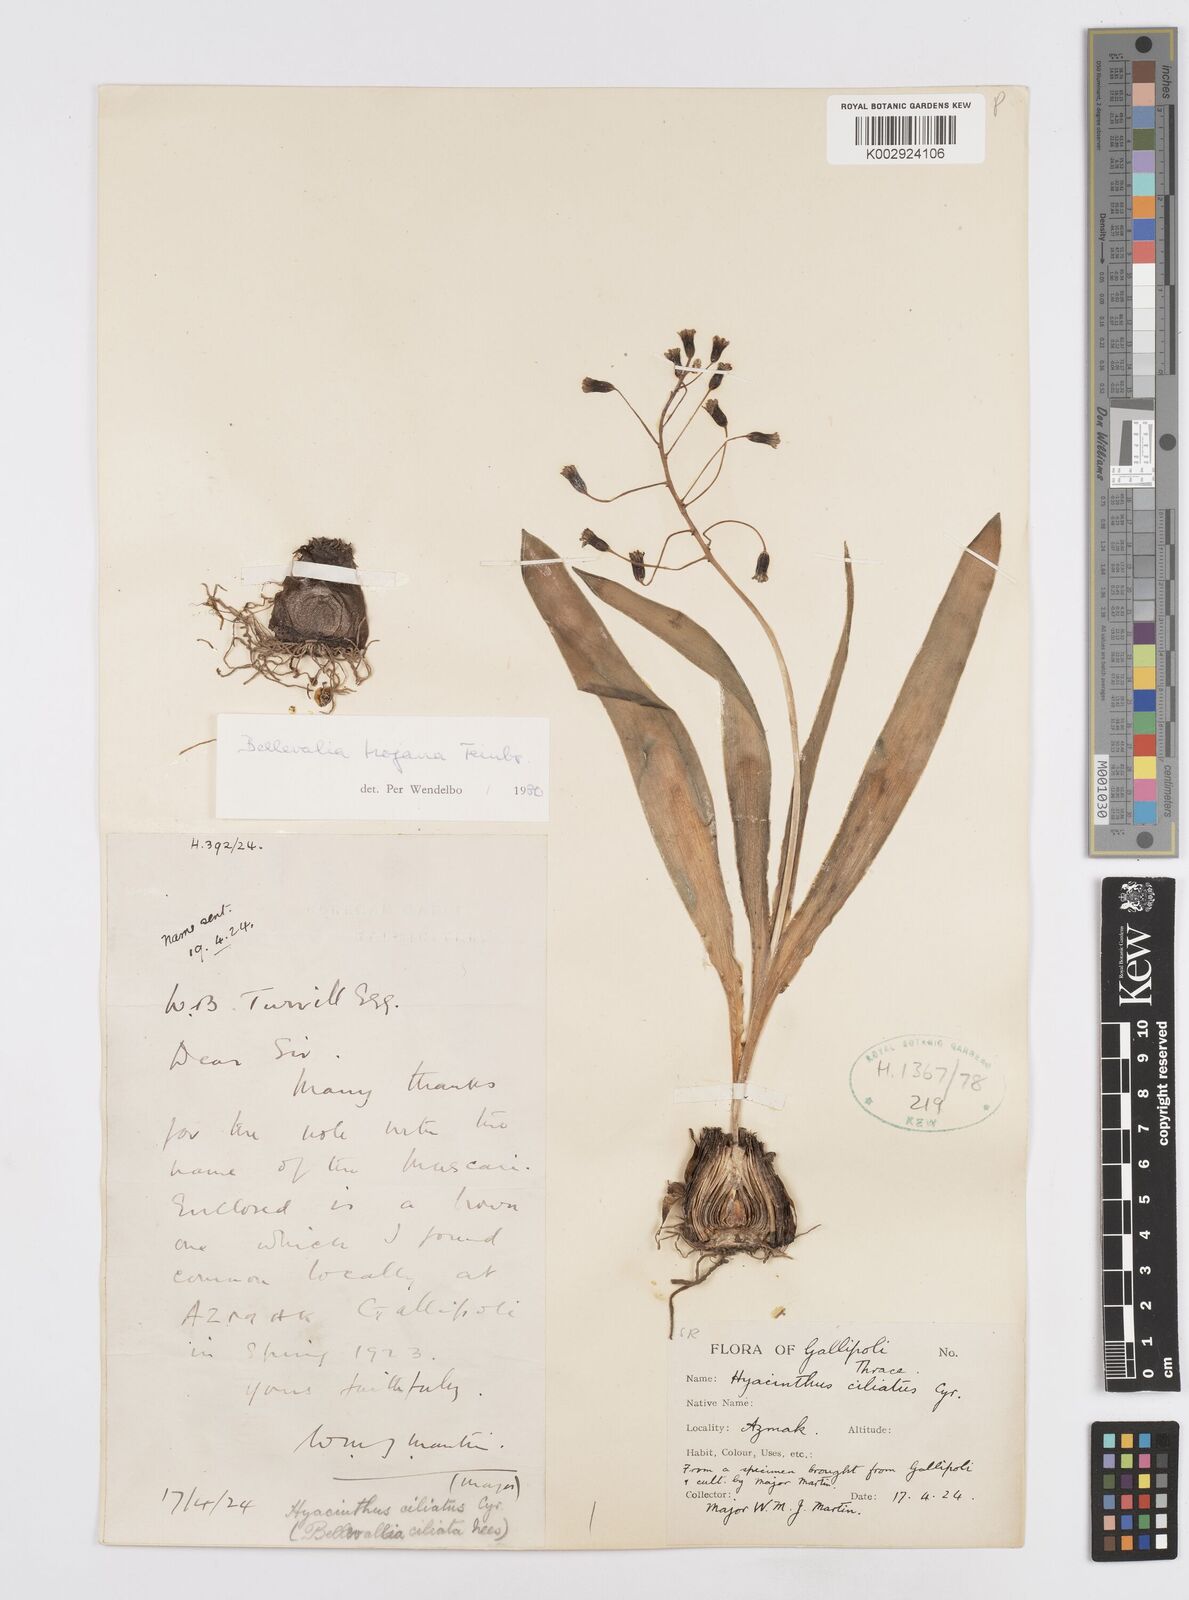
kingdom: Plantae
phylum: Tracheophyta
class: Liliopsida
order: Asparagales
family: Asparagaceae
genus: Bellevalia
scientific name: Bellevalia speciosa
